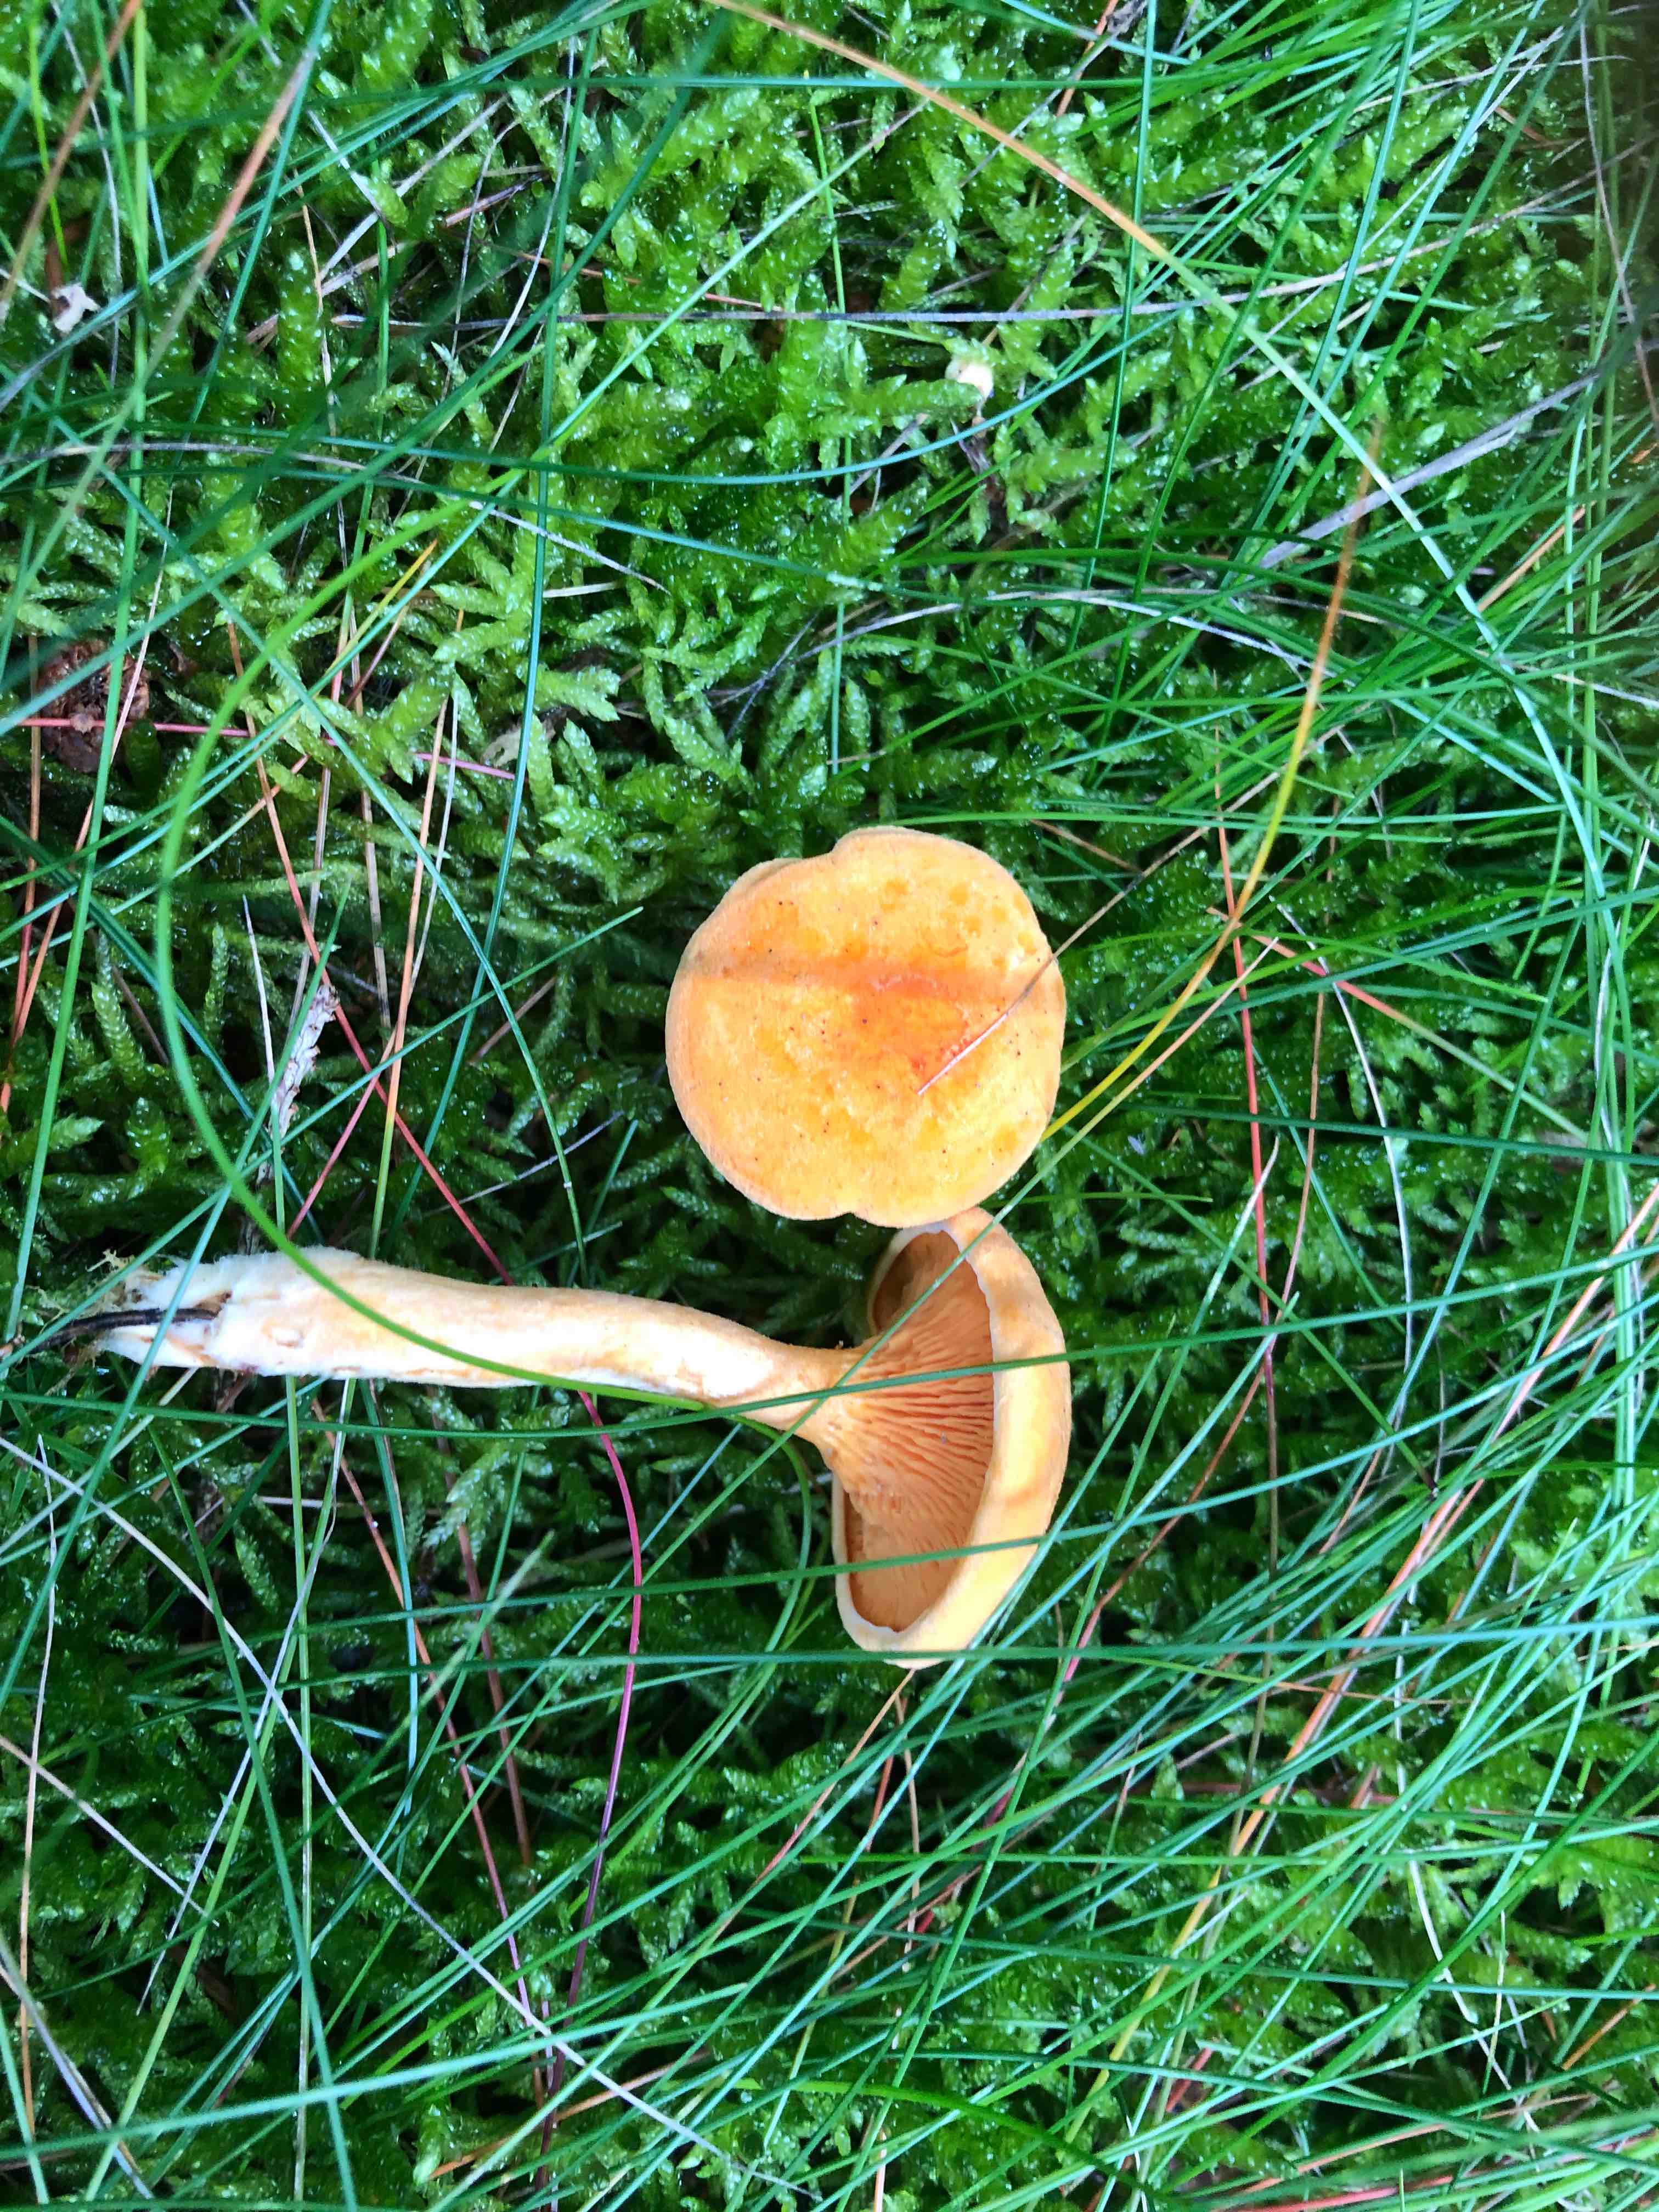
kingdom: Fungi
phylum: Basidiomycota
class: Agaricomycetes
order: Boletales
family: Hygrophoropsidaceae
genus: Hygrophoropsis
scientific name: Hygrophoropsis aurantiaca
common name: almindelig orangekantarel
